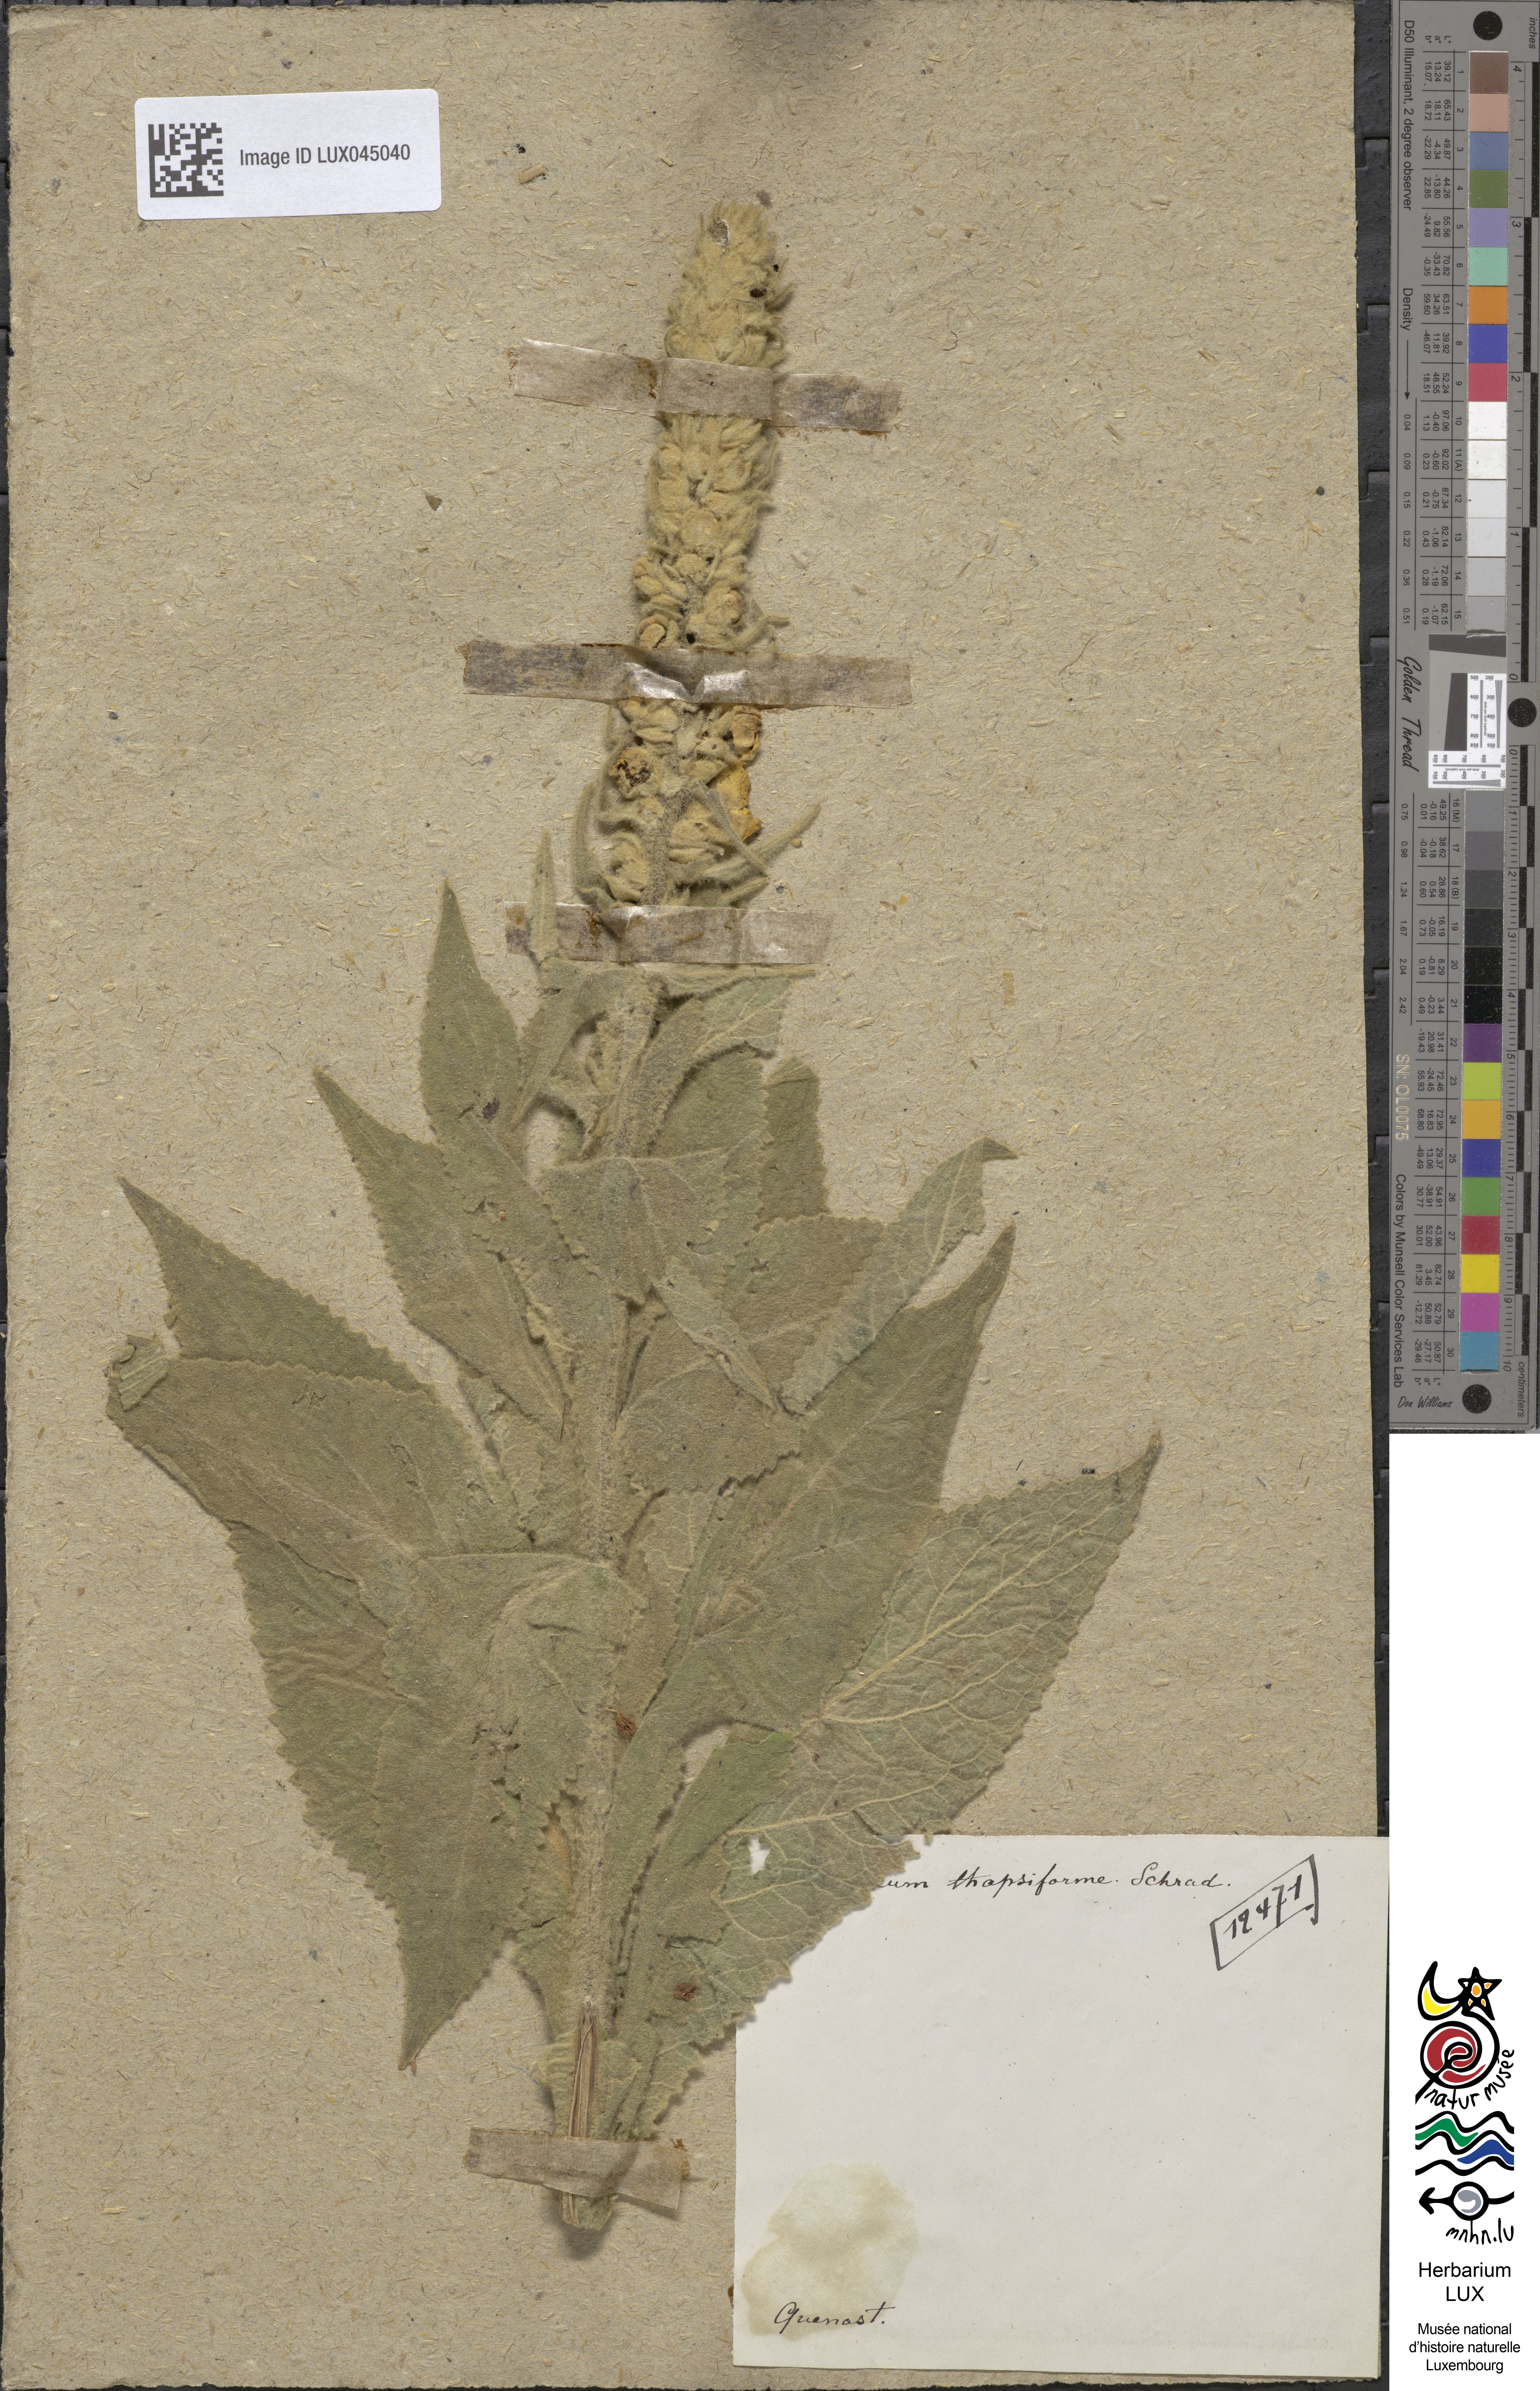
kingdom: Plantae
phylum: Tracheophyta
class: Magnoliopsida
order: Lamiales
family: Scrophulariaceae
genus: Verbascum
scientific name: Verbascum densiflorum
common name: Dense-flowered mullein
